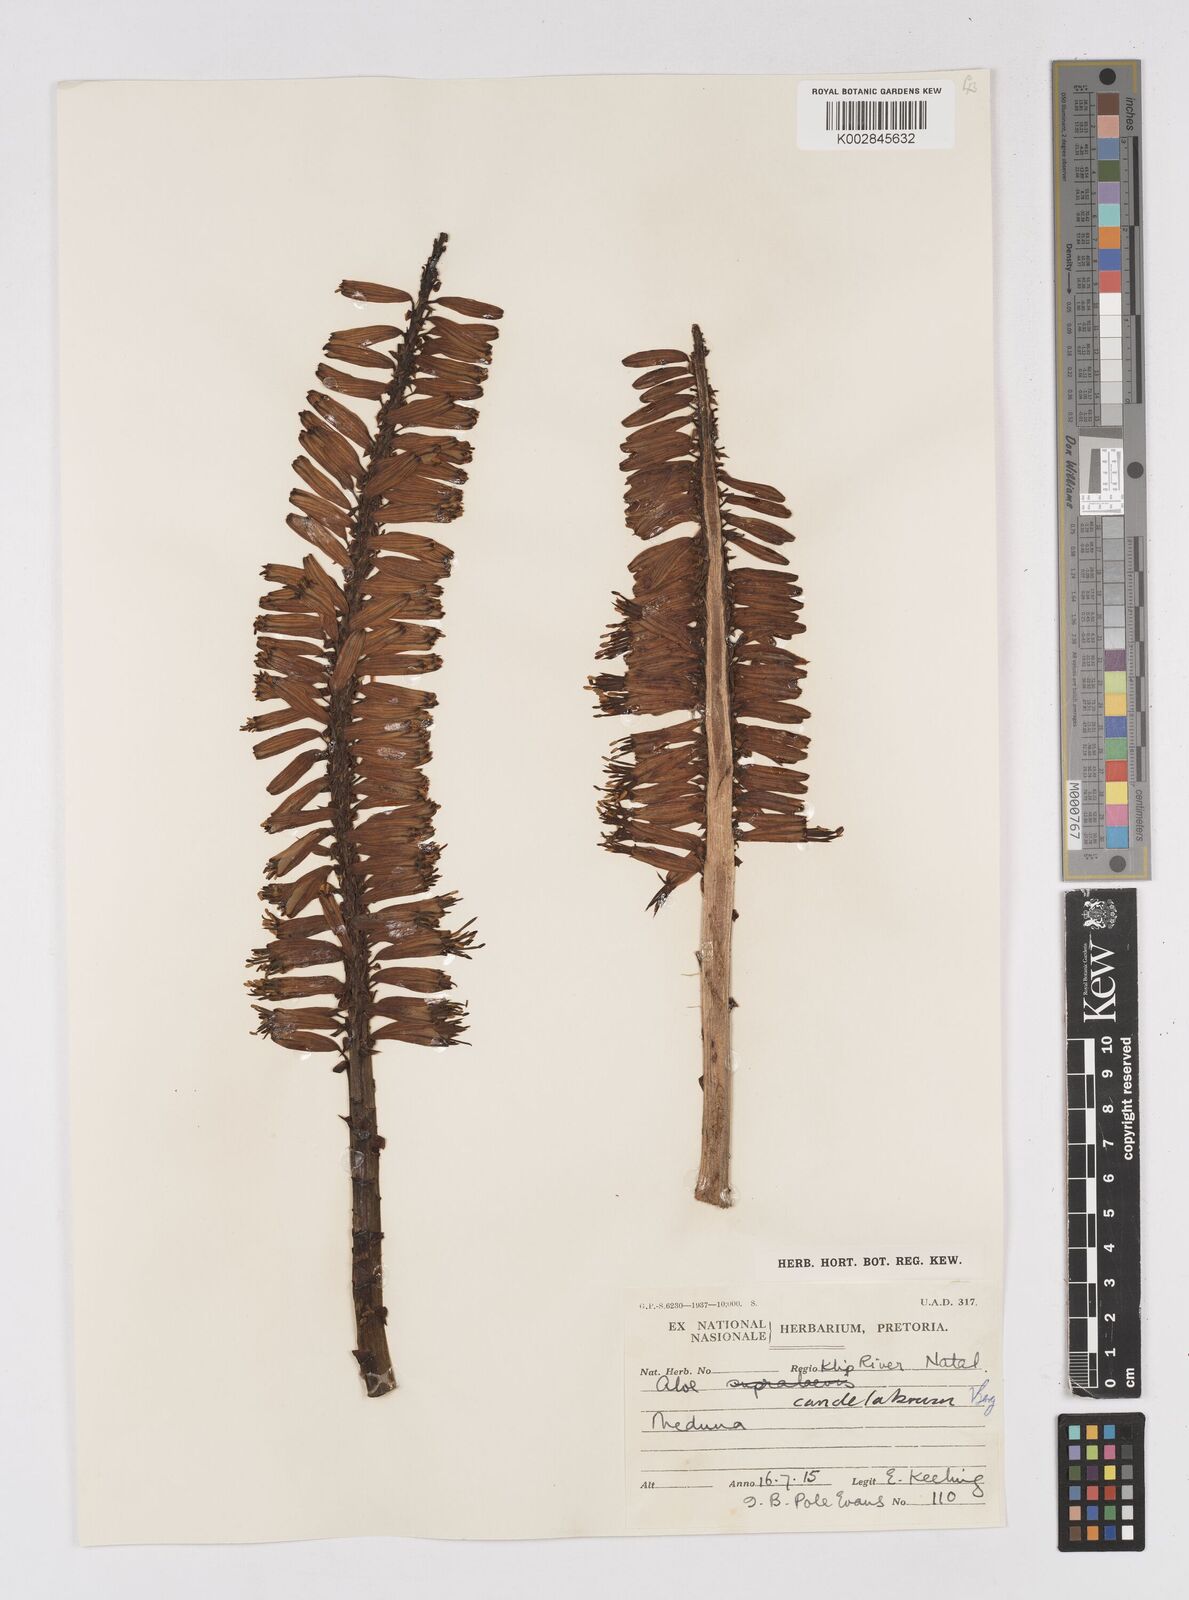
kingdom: Plantae
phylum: Tracheophyta
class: Liliopsida
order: Asparagales
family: Asphodelaceae
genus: Aloe
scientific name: Aloe candelabrum
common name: Candelabra aloe
